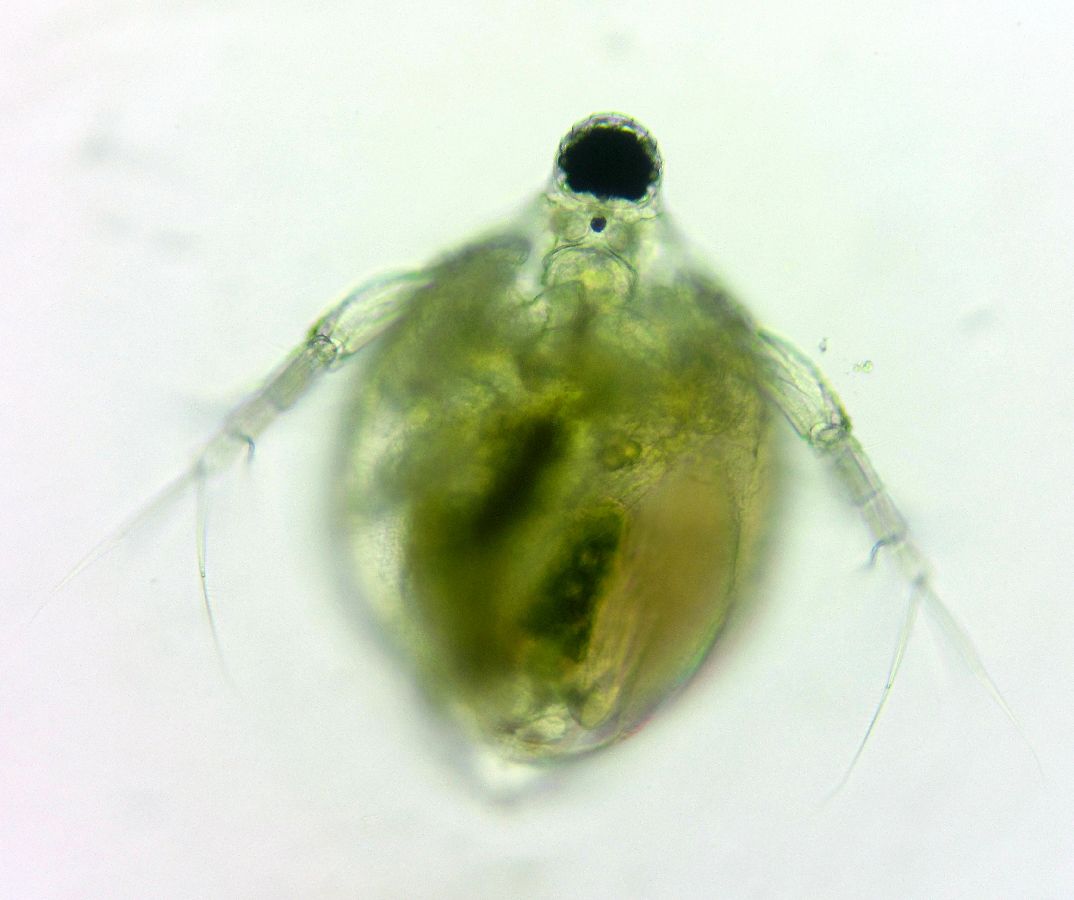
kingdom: Animalia
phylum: Arthropoda
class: Branchiopoda
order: Diplostraca
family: Daphniidae
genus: Ceriodaphnia
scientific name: Ceriodaphnia
